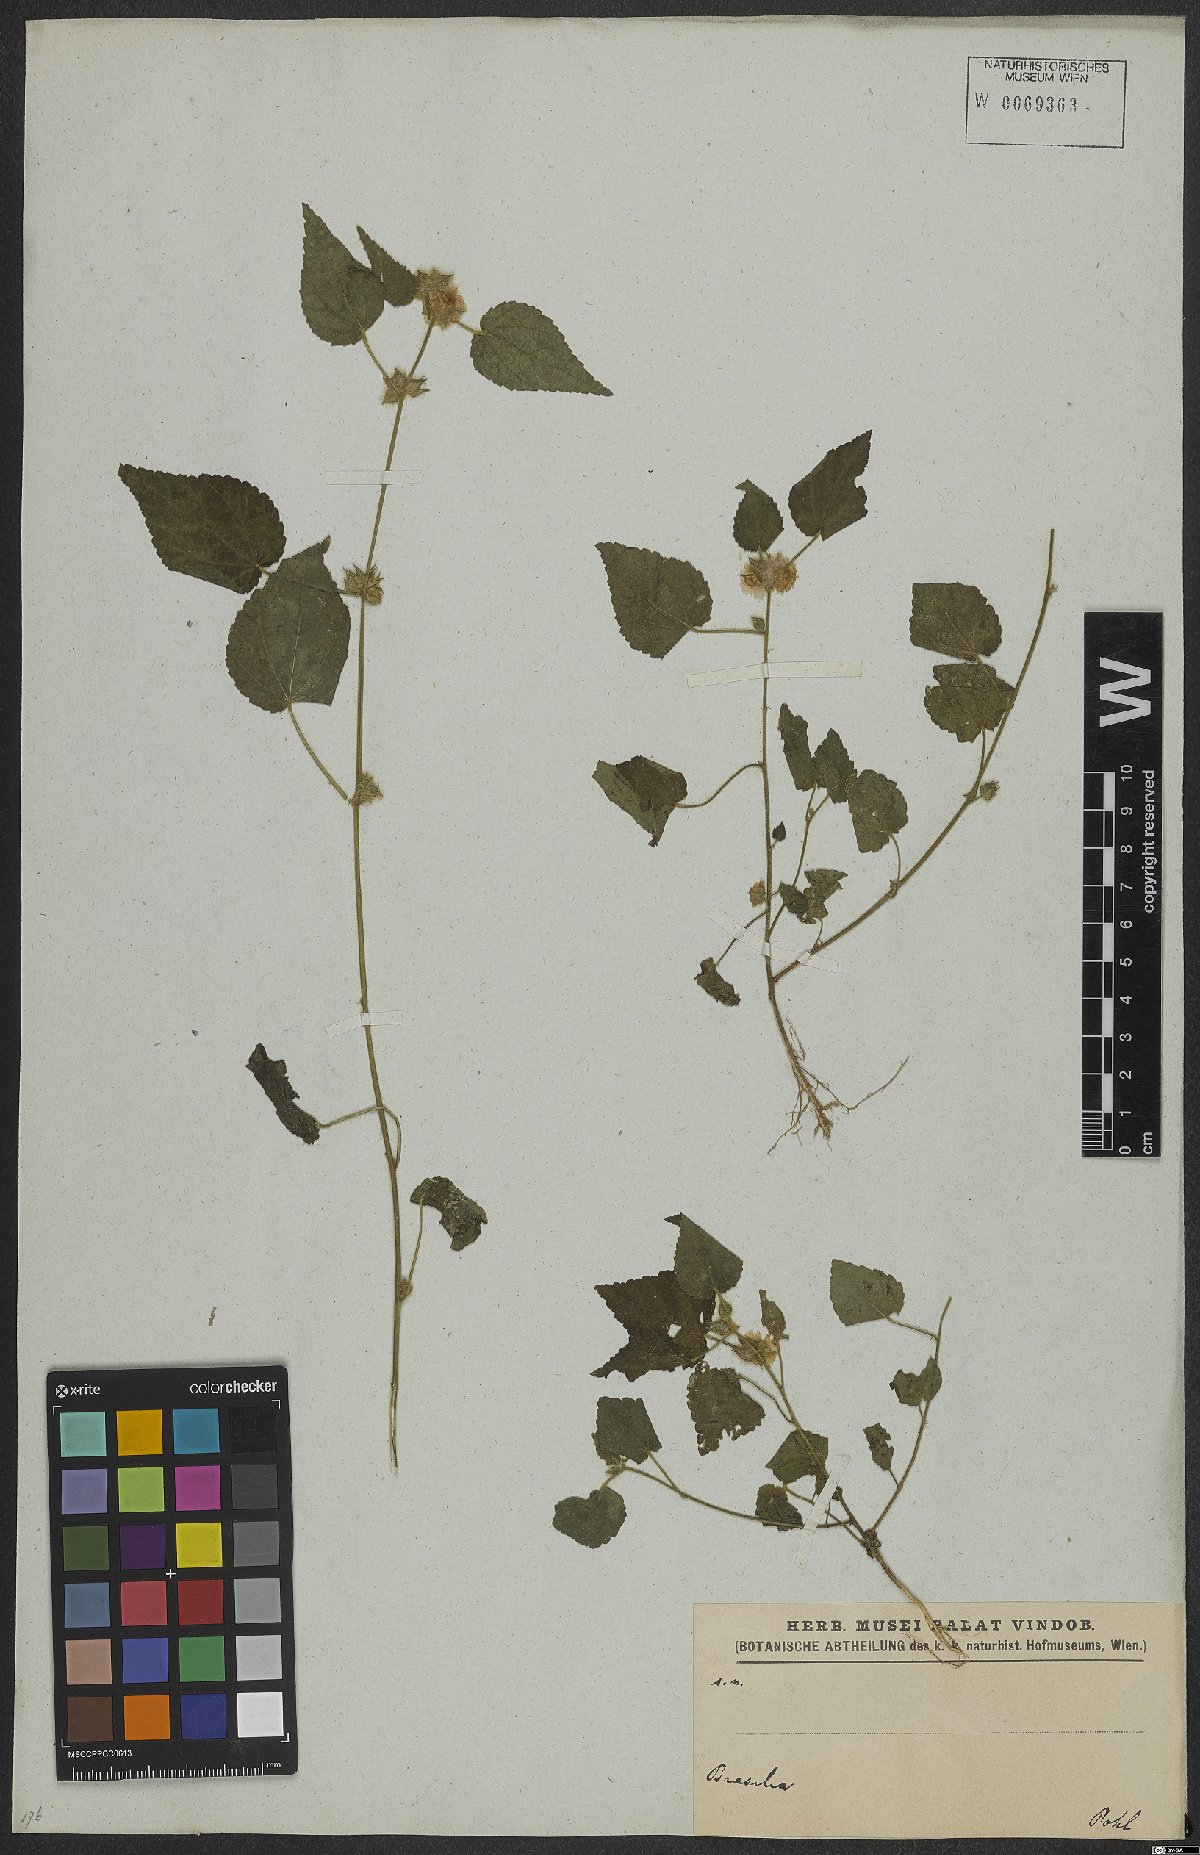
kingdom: Plantae
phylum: Tracheophyta
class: Magnoliopsida
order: Malvales
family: Malvaceae
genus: Sida
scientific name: Sida urens
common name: Tropical fanpetals
